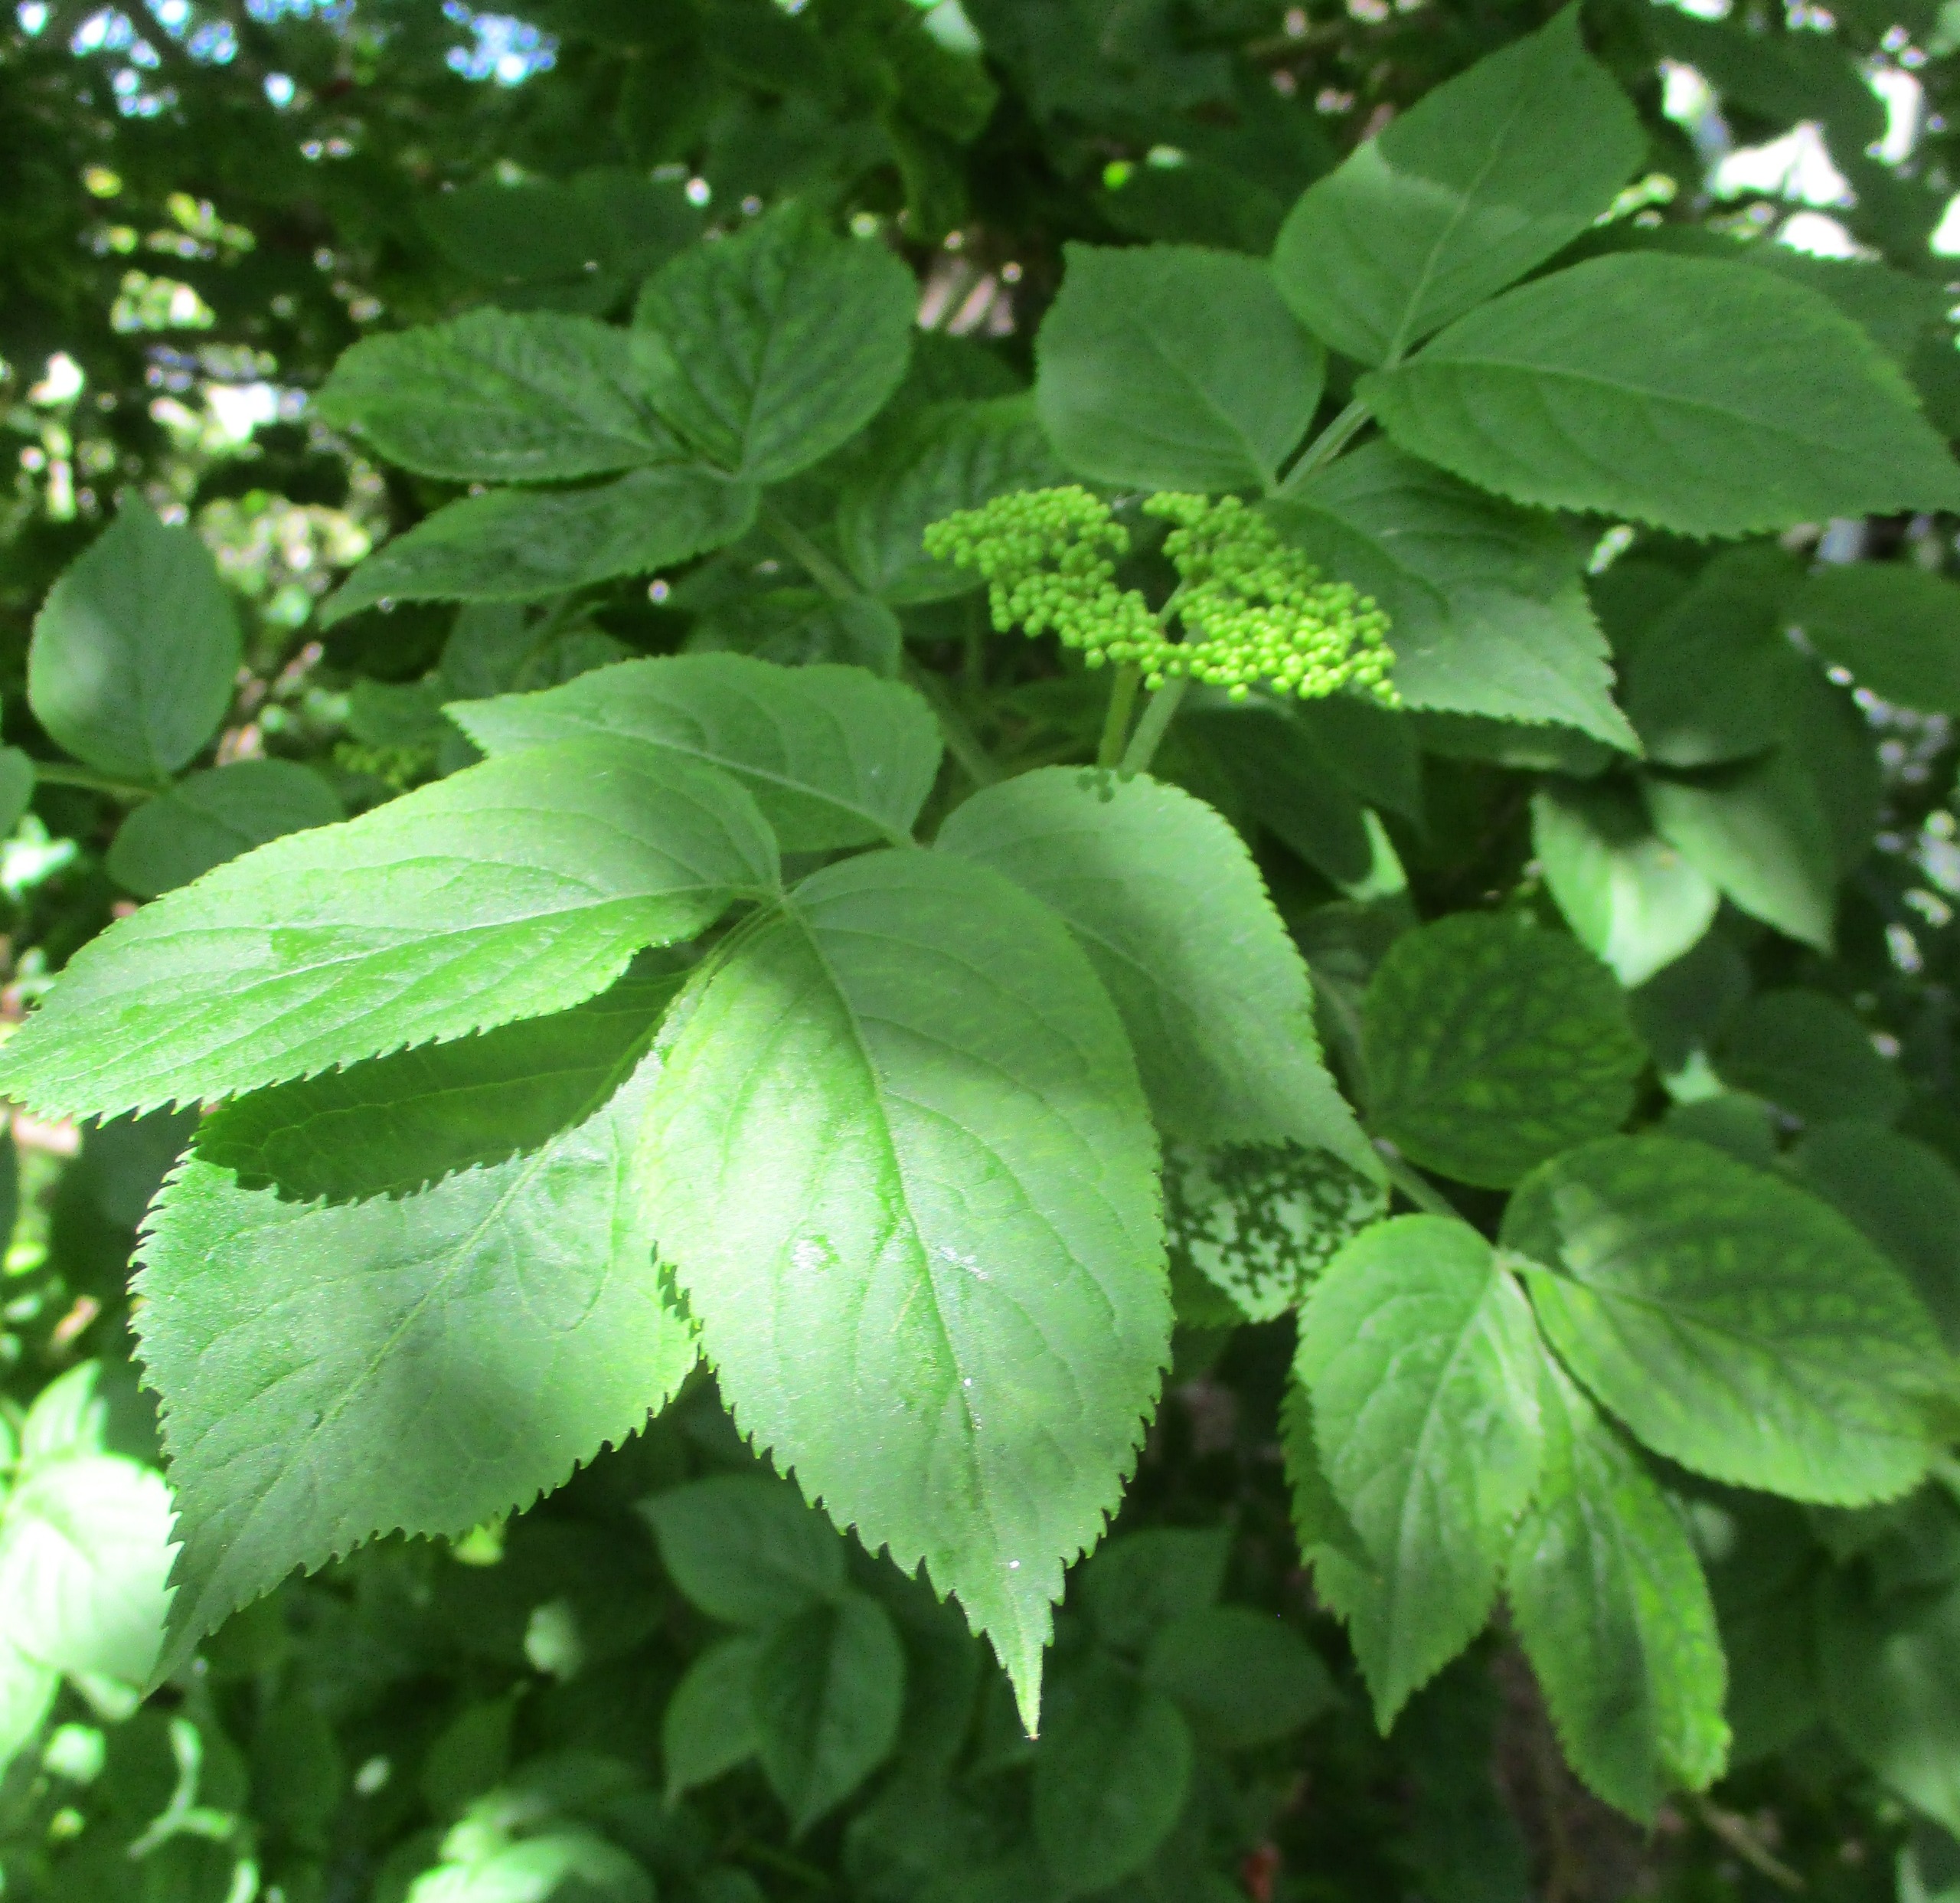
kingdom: Plantae
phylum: Tracheophyta
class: Magnoliopsida
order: Dipsacales
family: Viburnaceae
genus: Sambucus
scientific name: Sambucus nigra
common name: Almindelig hyld
